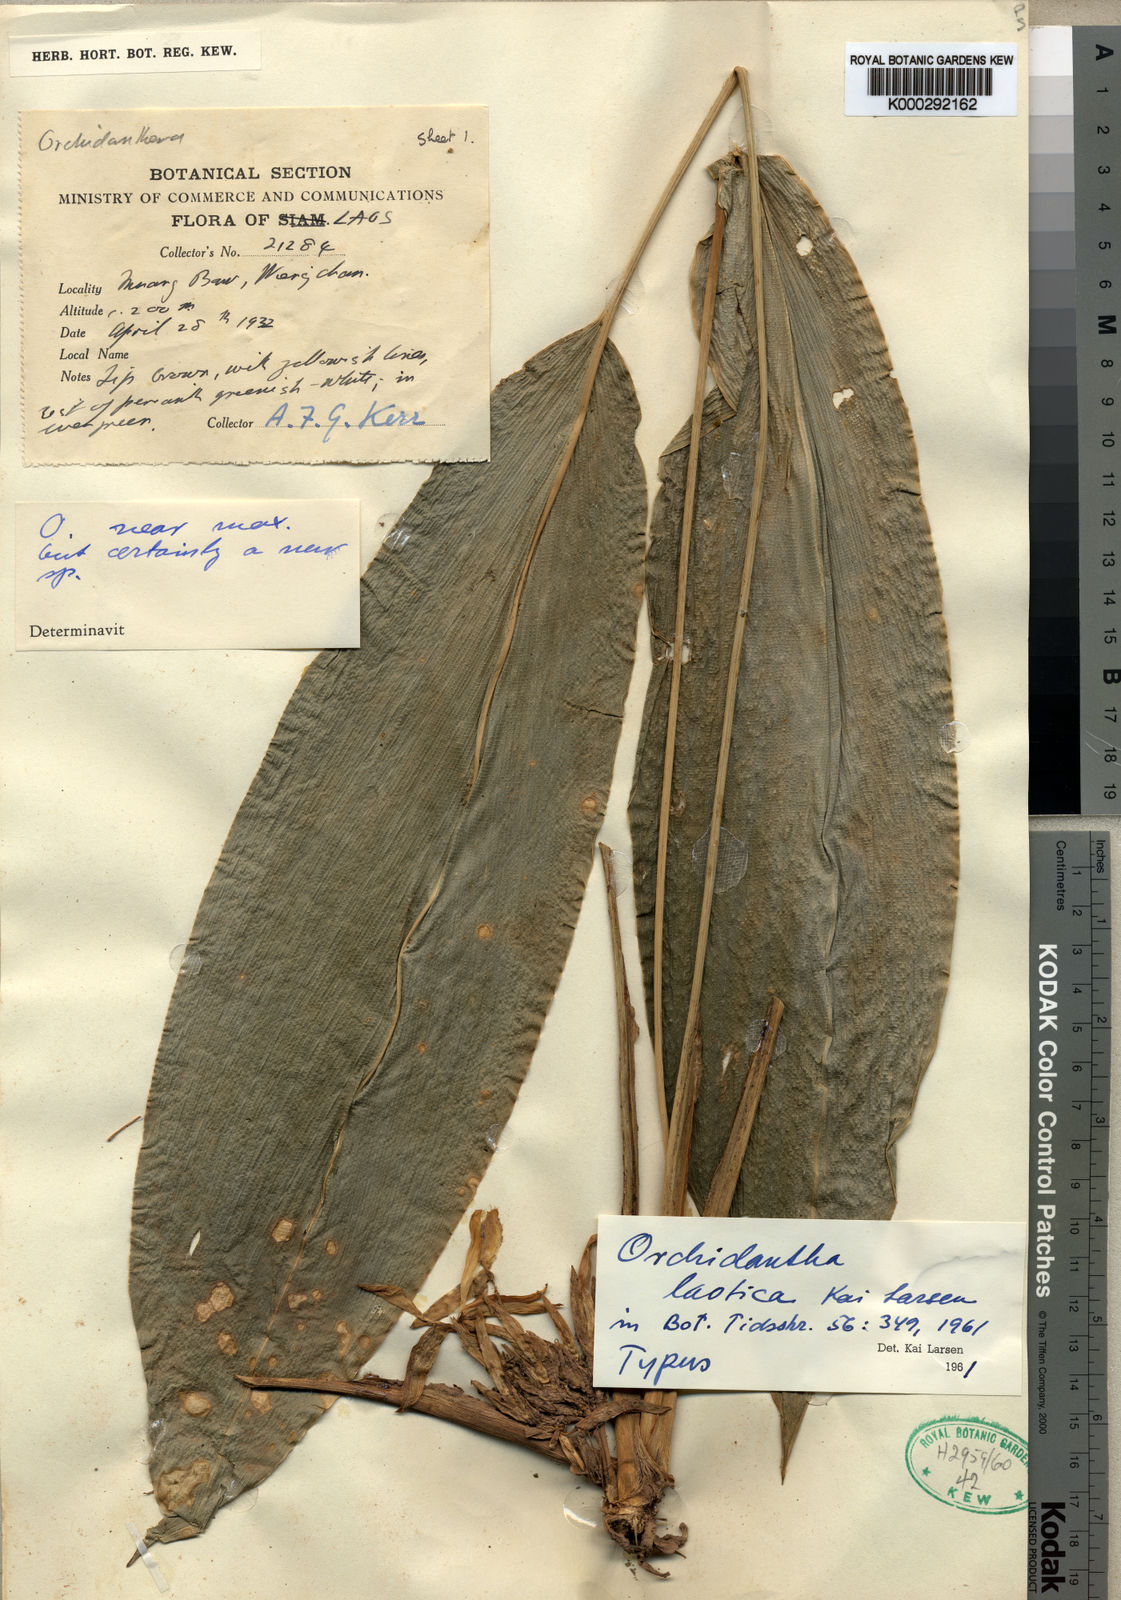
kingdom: Plantae
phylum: Tracheophyta
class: Liliopsida
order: Zingiberales
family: Lowiaceae
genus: Orchidantha
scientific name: Orchidantha laotica
